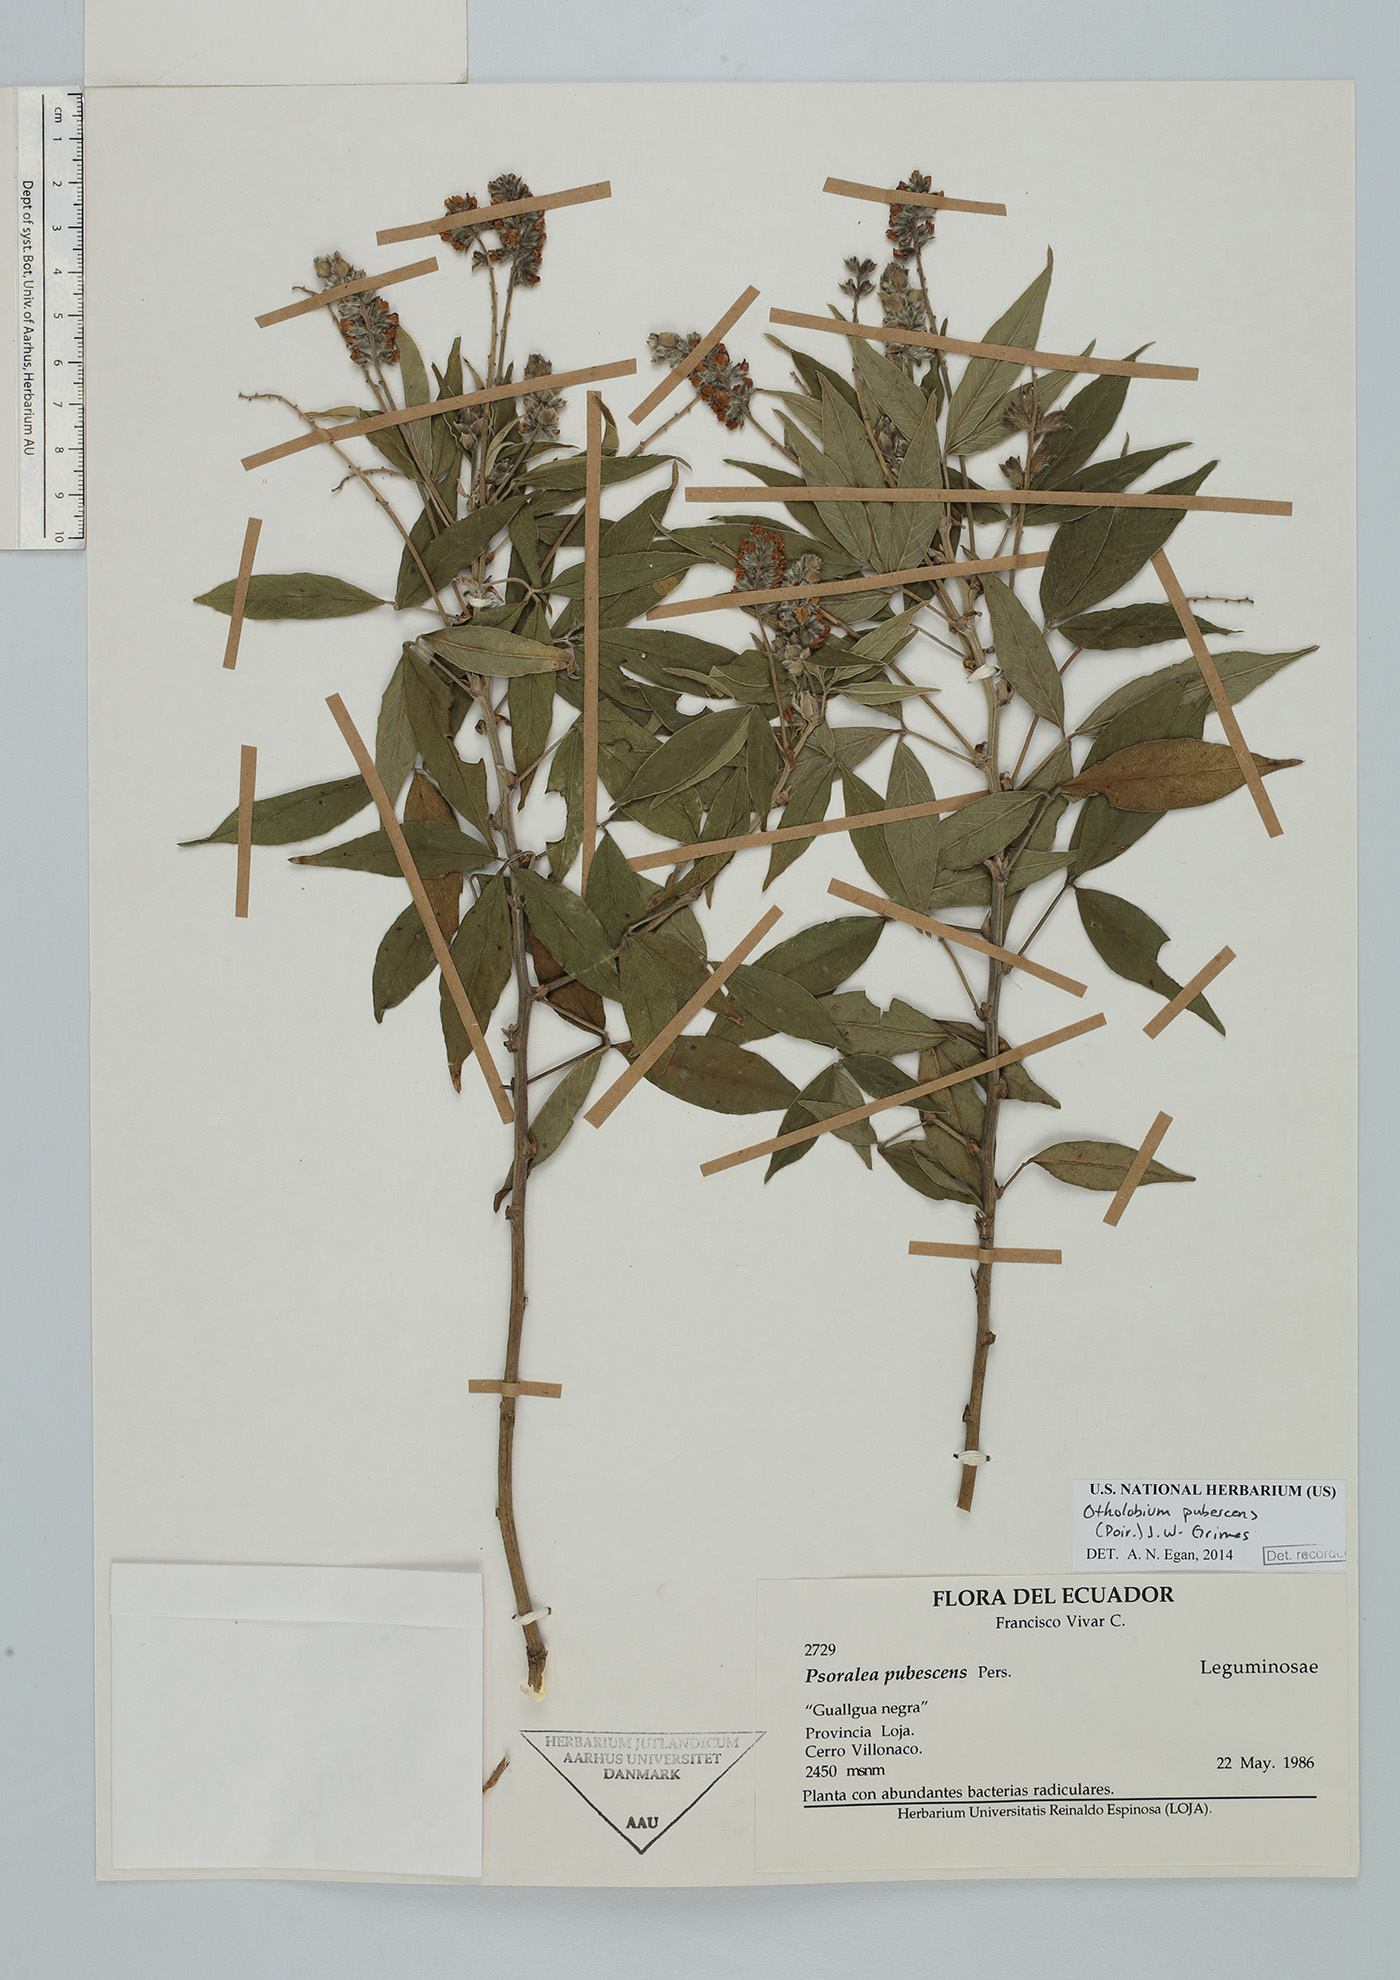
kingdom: Plantae
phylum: Tracheophyta
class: Magnoliopsida
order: Fabales
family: Fabaceae
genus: Psoralea
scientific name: Psoralea Otholobium pubescens
